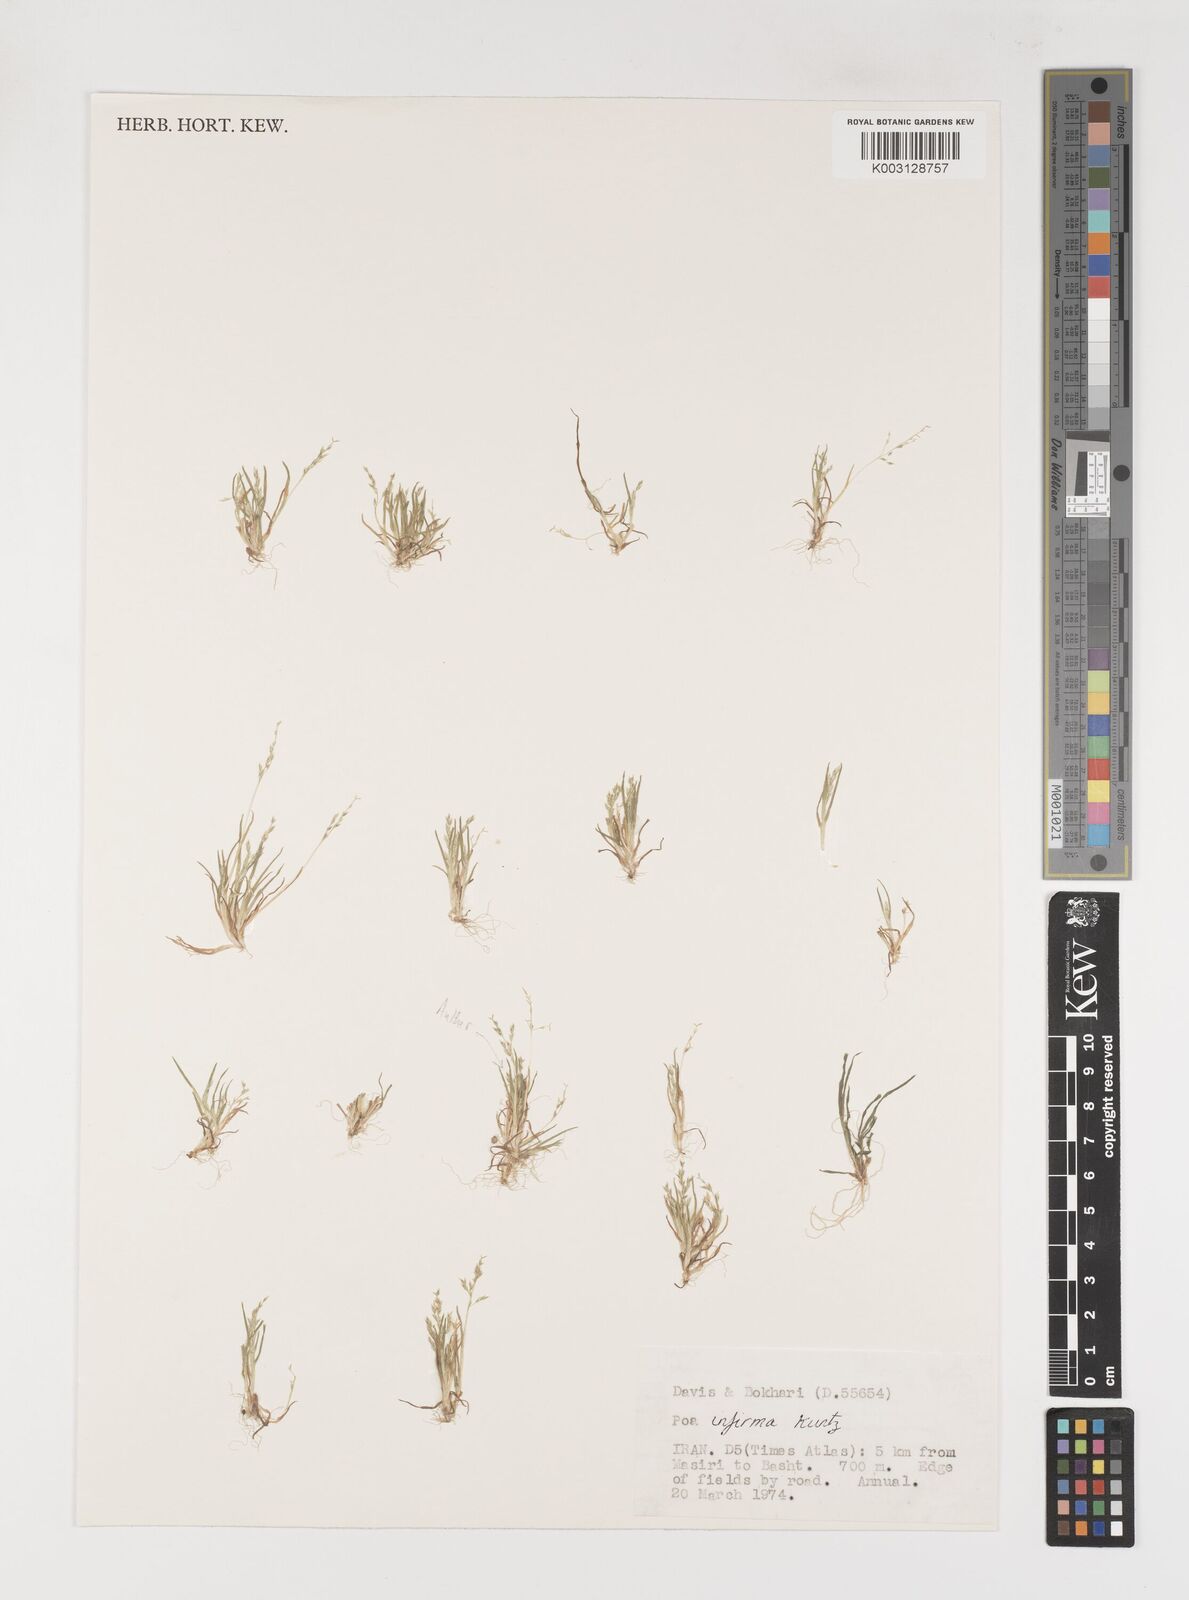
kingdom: Plantae
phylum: Tracheophyta
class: Liliopsida
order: Poales
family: Poaceae
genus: Poa
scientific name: Poa infirma
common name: Weak bluegrass
